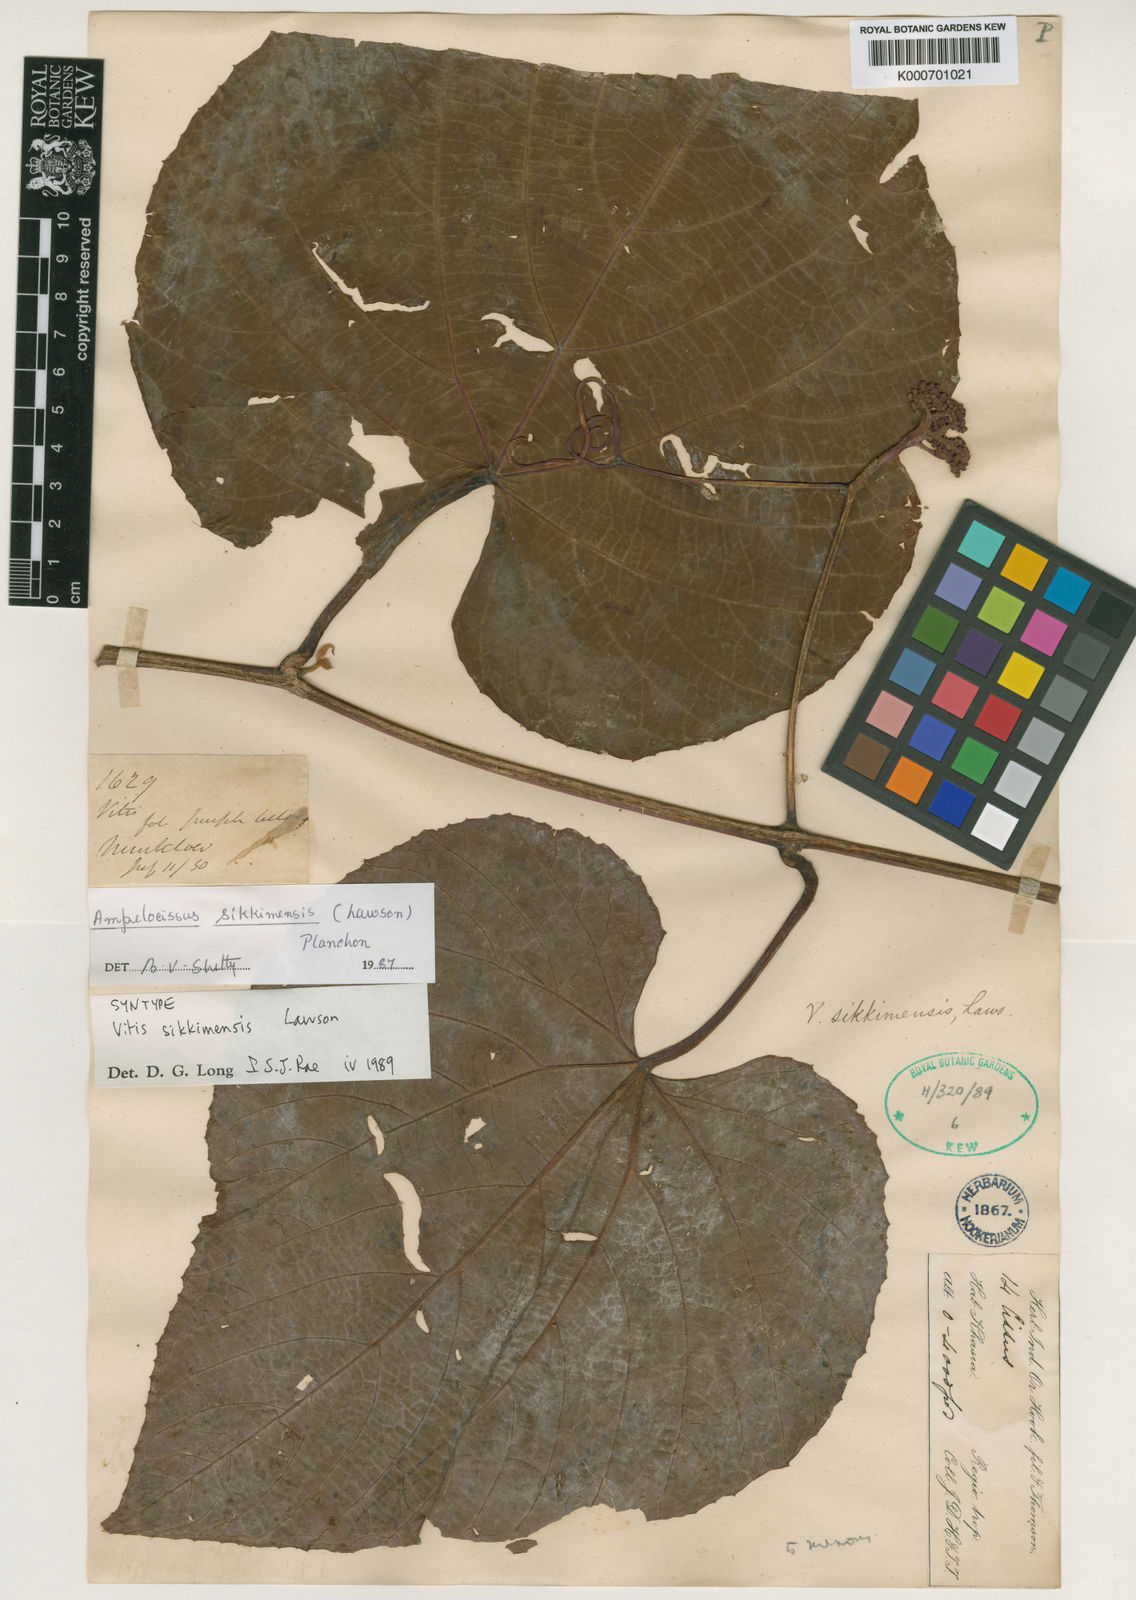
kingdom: Plantae
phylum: Tracheophyta
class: Magnoliopsida
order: Vitales
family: Vitaceae
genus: Ampelocissus
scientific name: Ampelocissus sikkimensis
